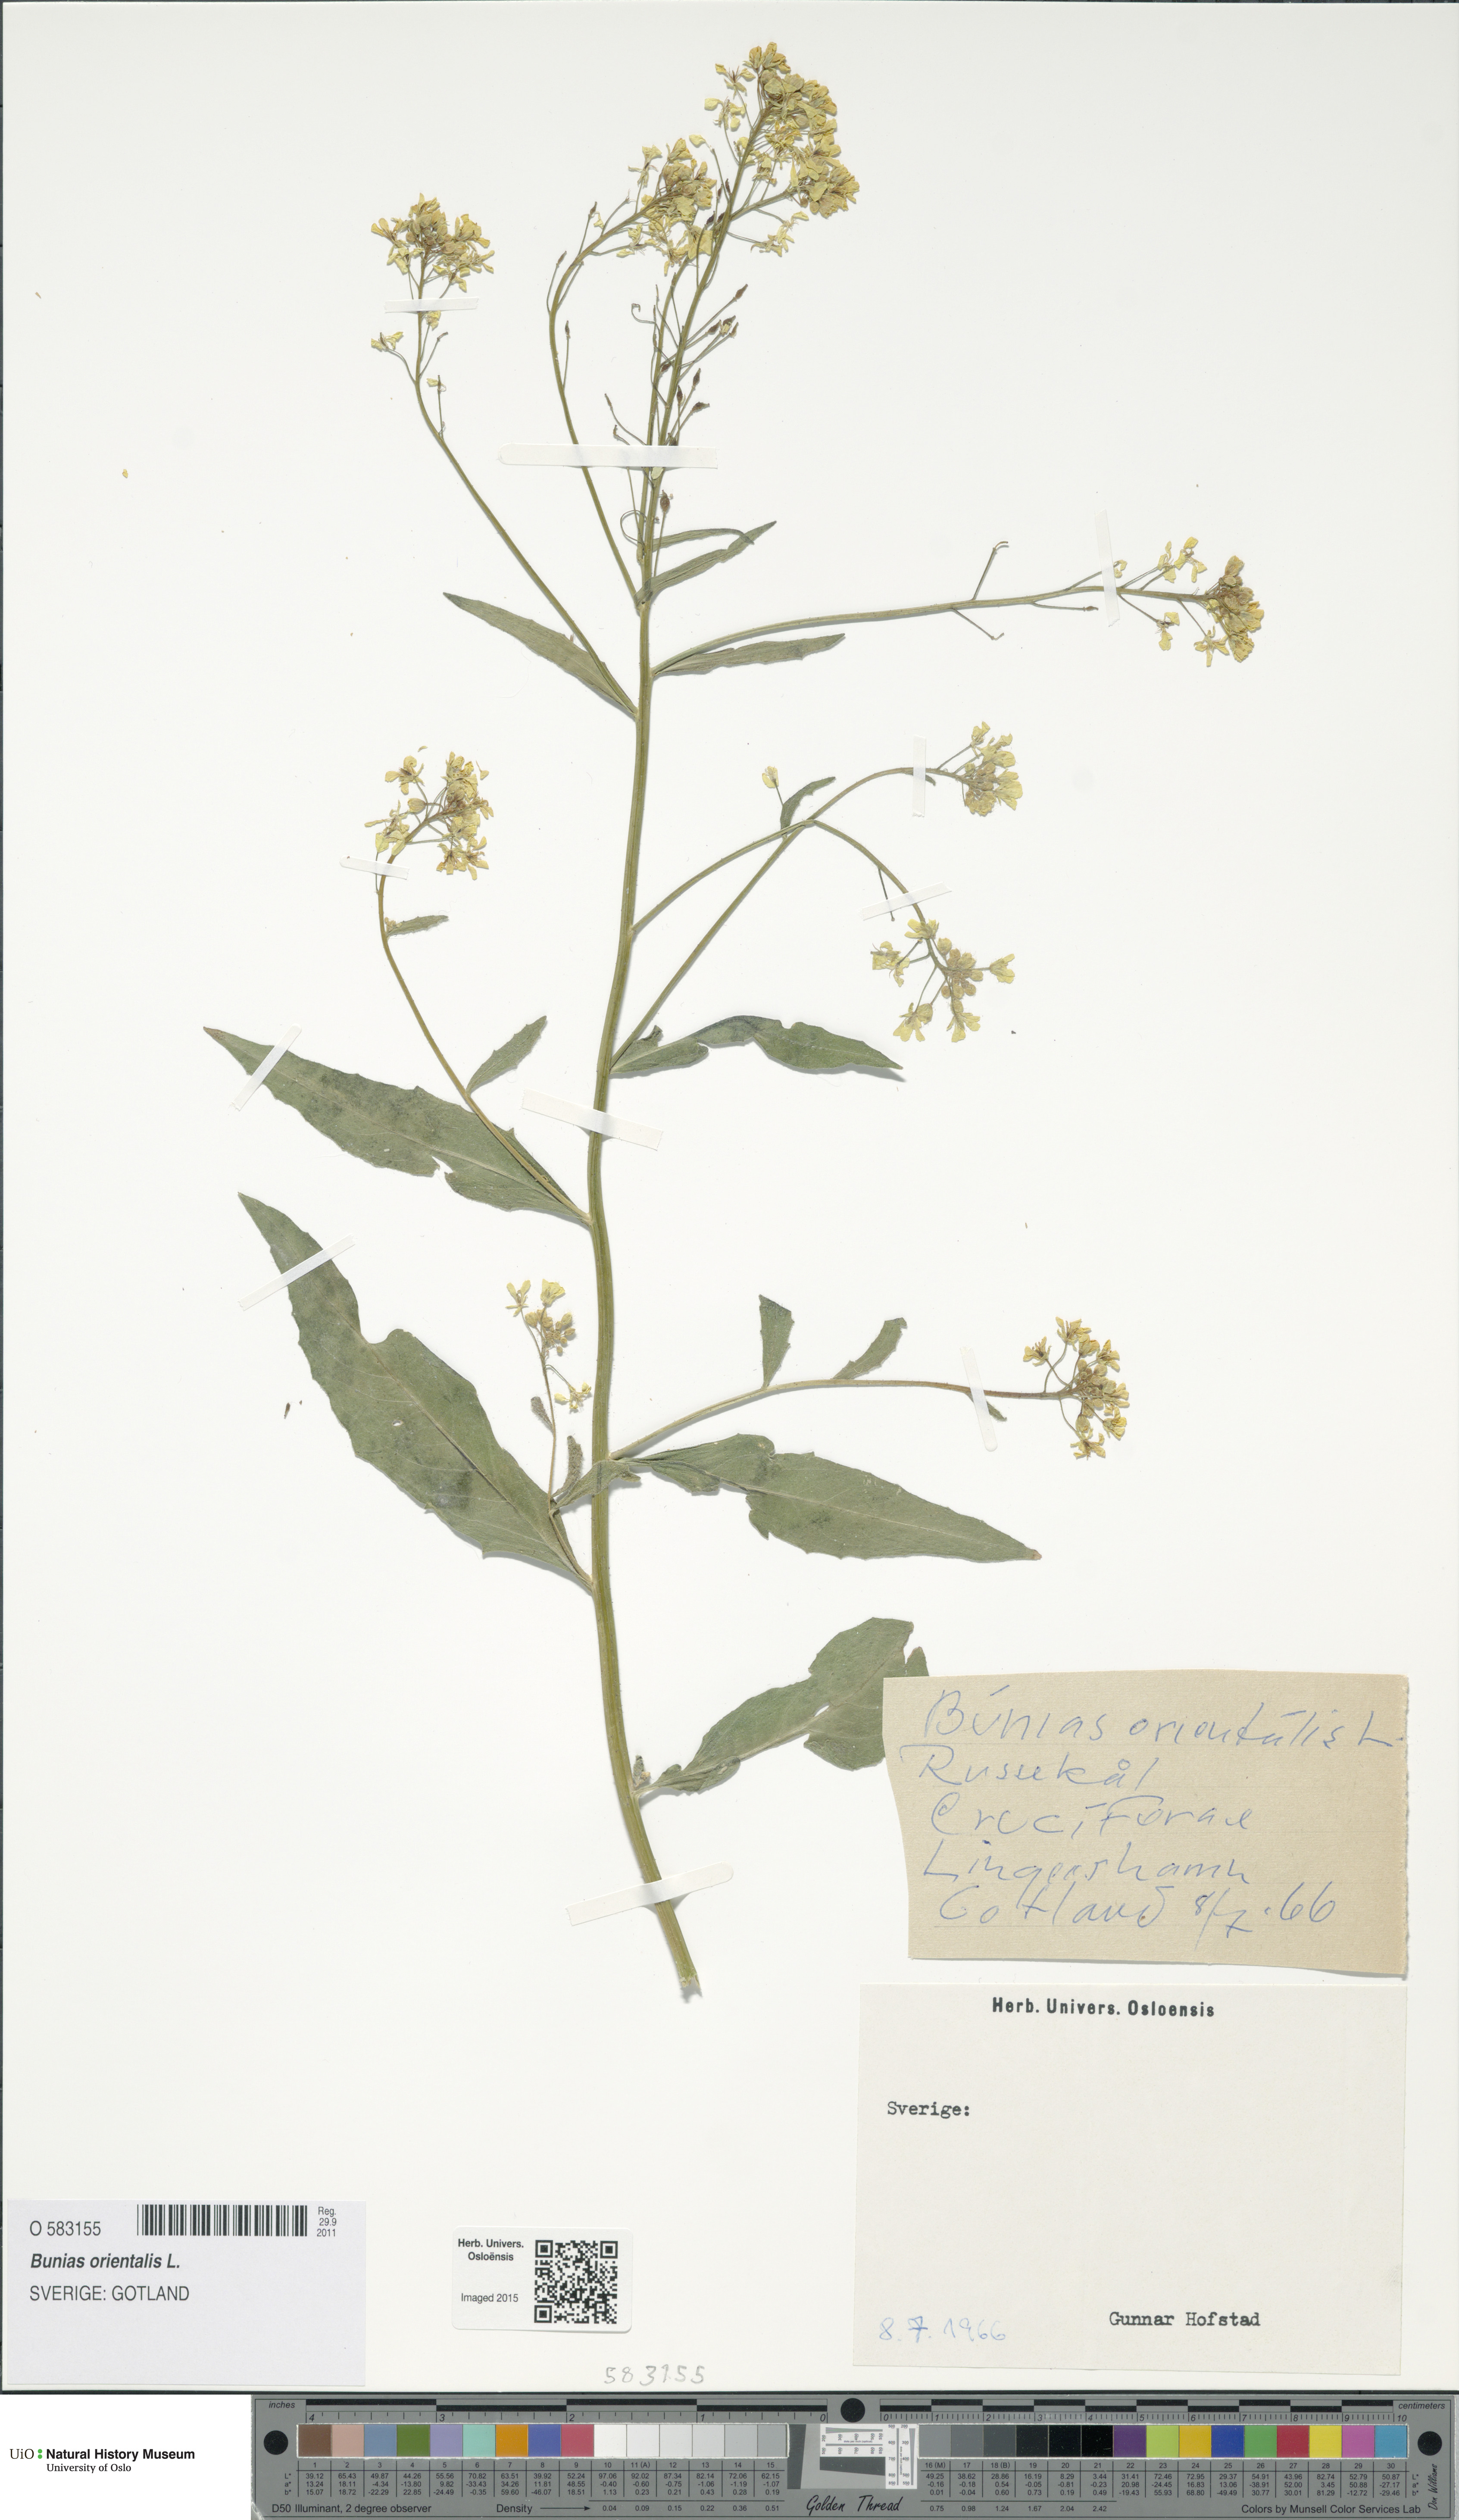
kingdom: Plantae
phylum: Tracheophyta
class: Magnoliopsida
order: Brassicales
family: Brassicaceae
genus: Bunias
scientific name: Bunias orientalis
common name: Warty-cabbage
